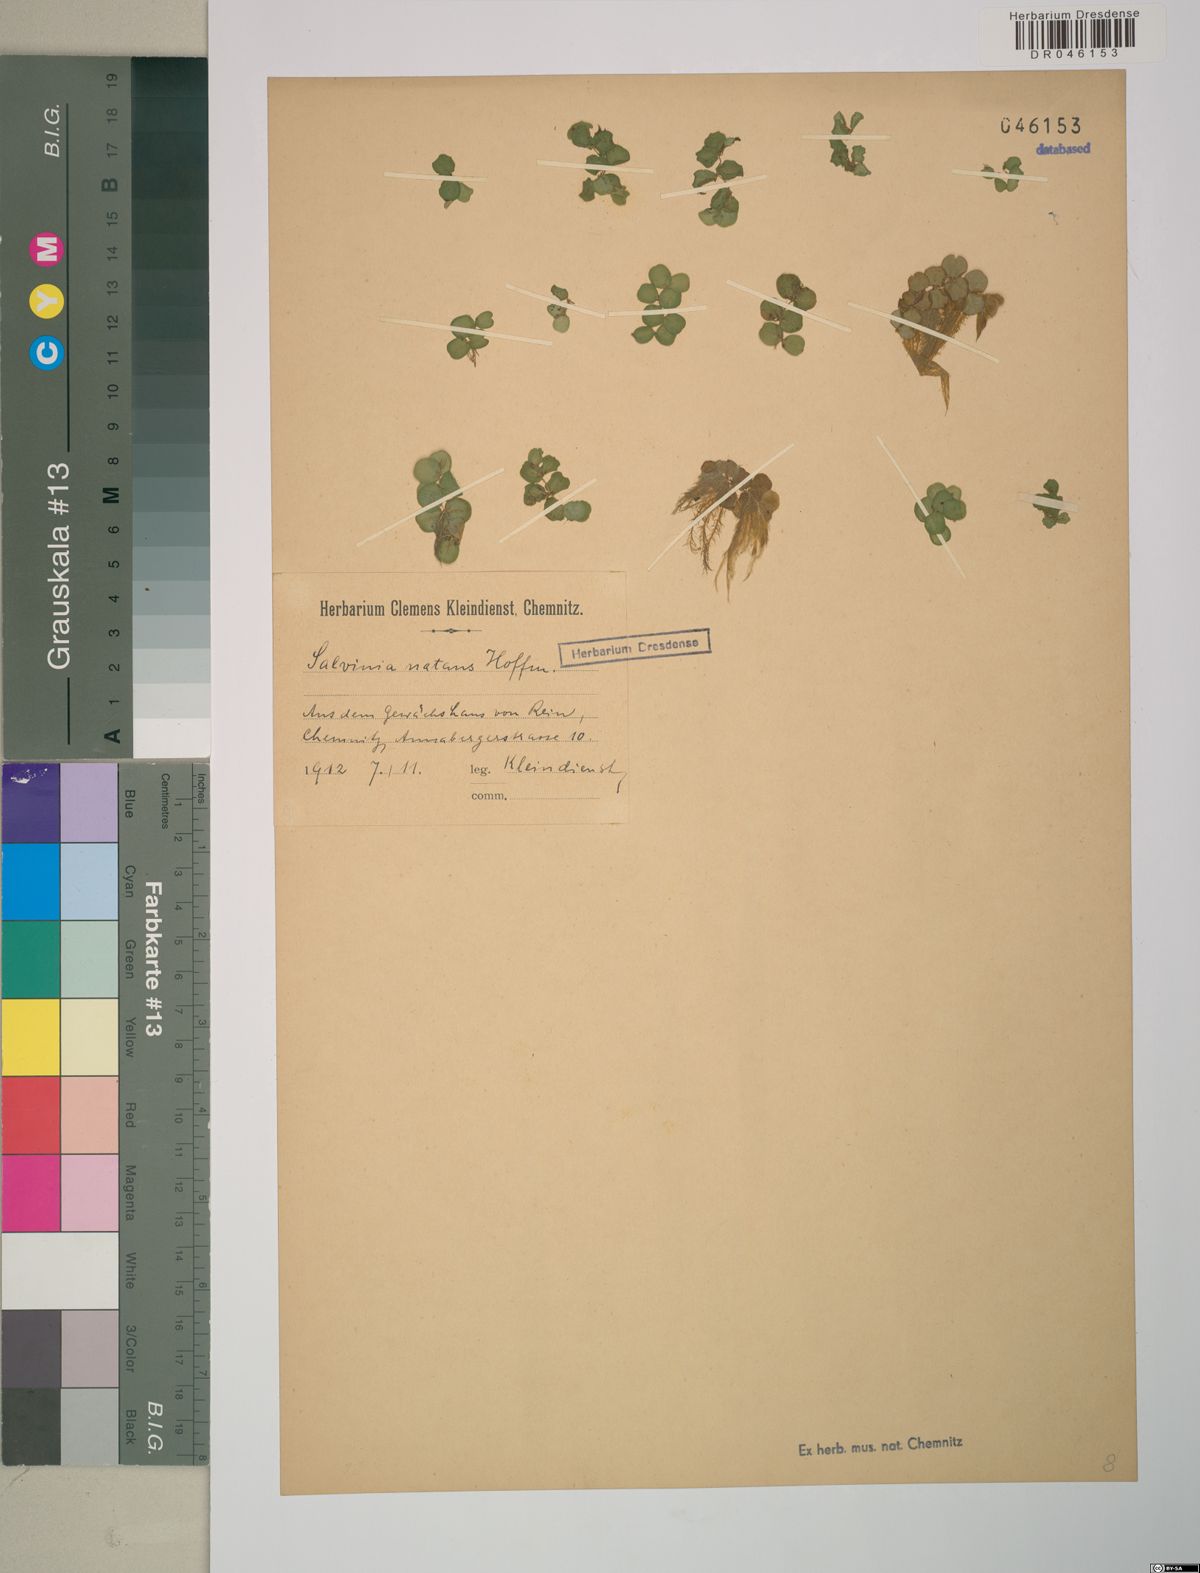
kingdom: Plantae
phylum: Tracheophyta
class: Polypodiopsida
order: Salviniales
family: Salviniaceae
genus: Salvinia
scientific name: Salvinia natans
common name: Floating fern
